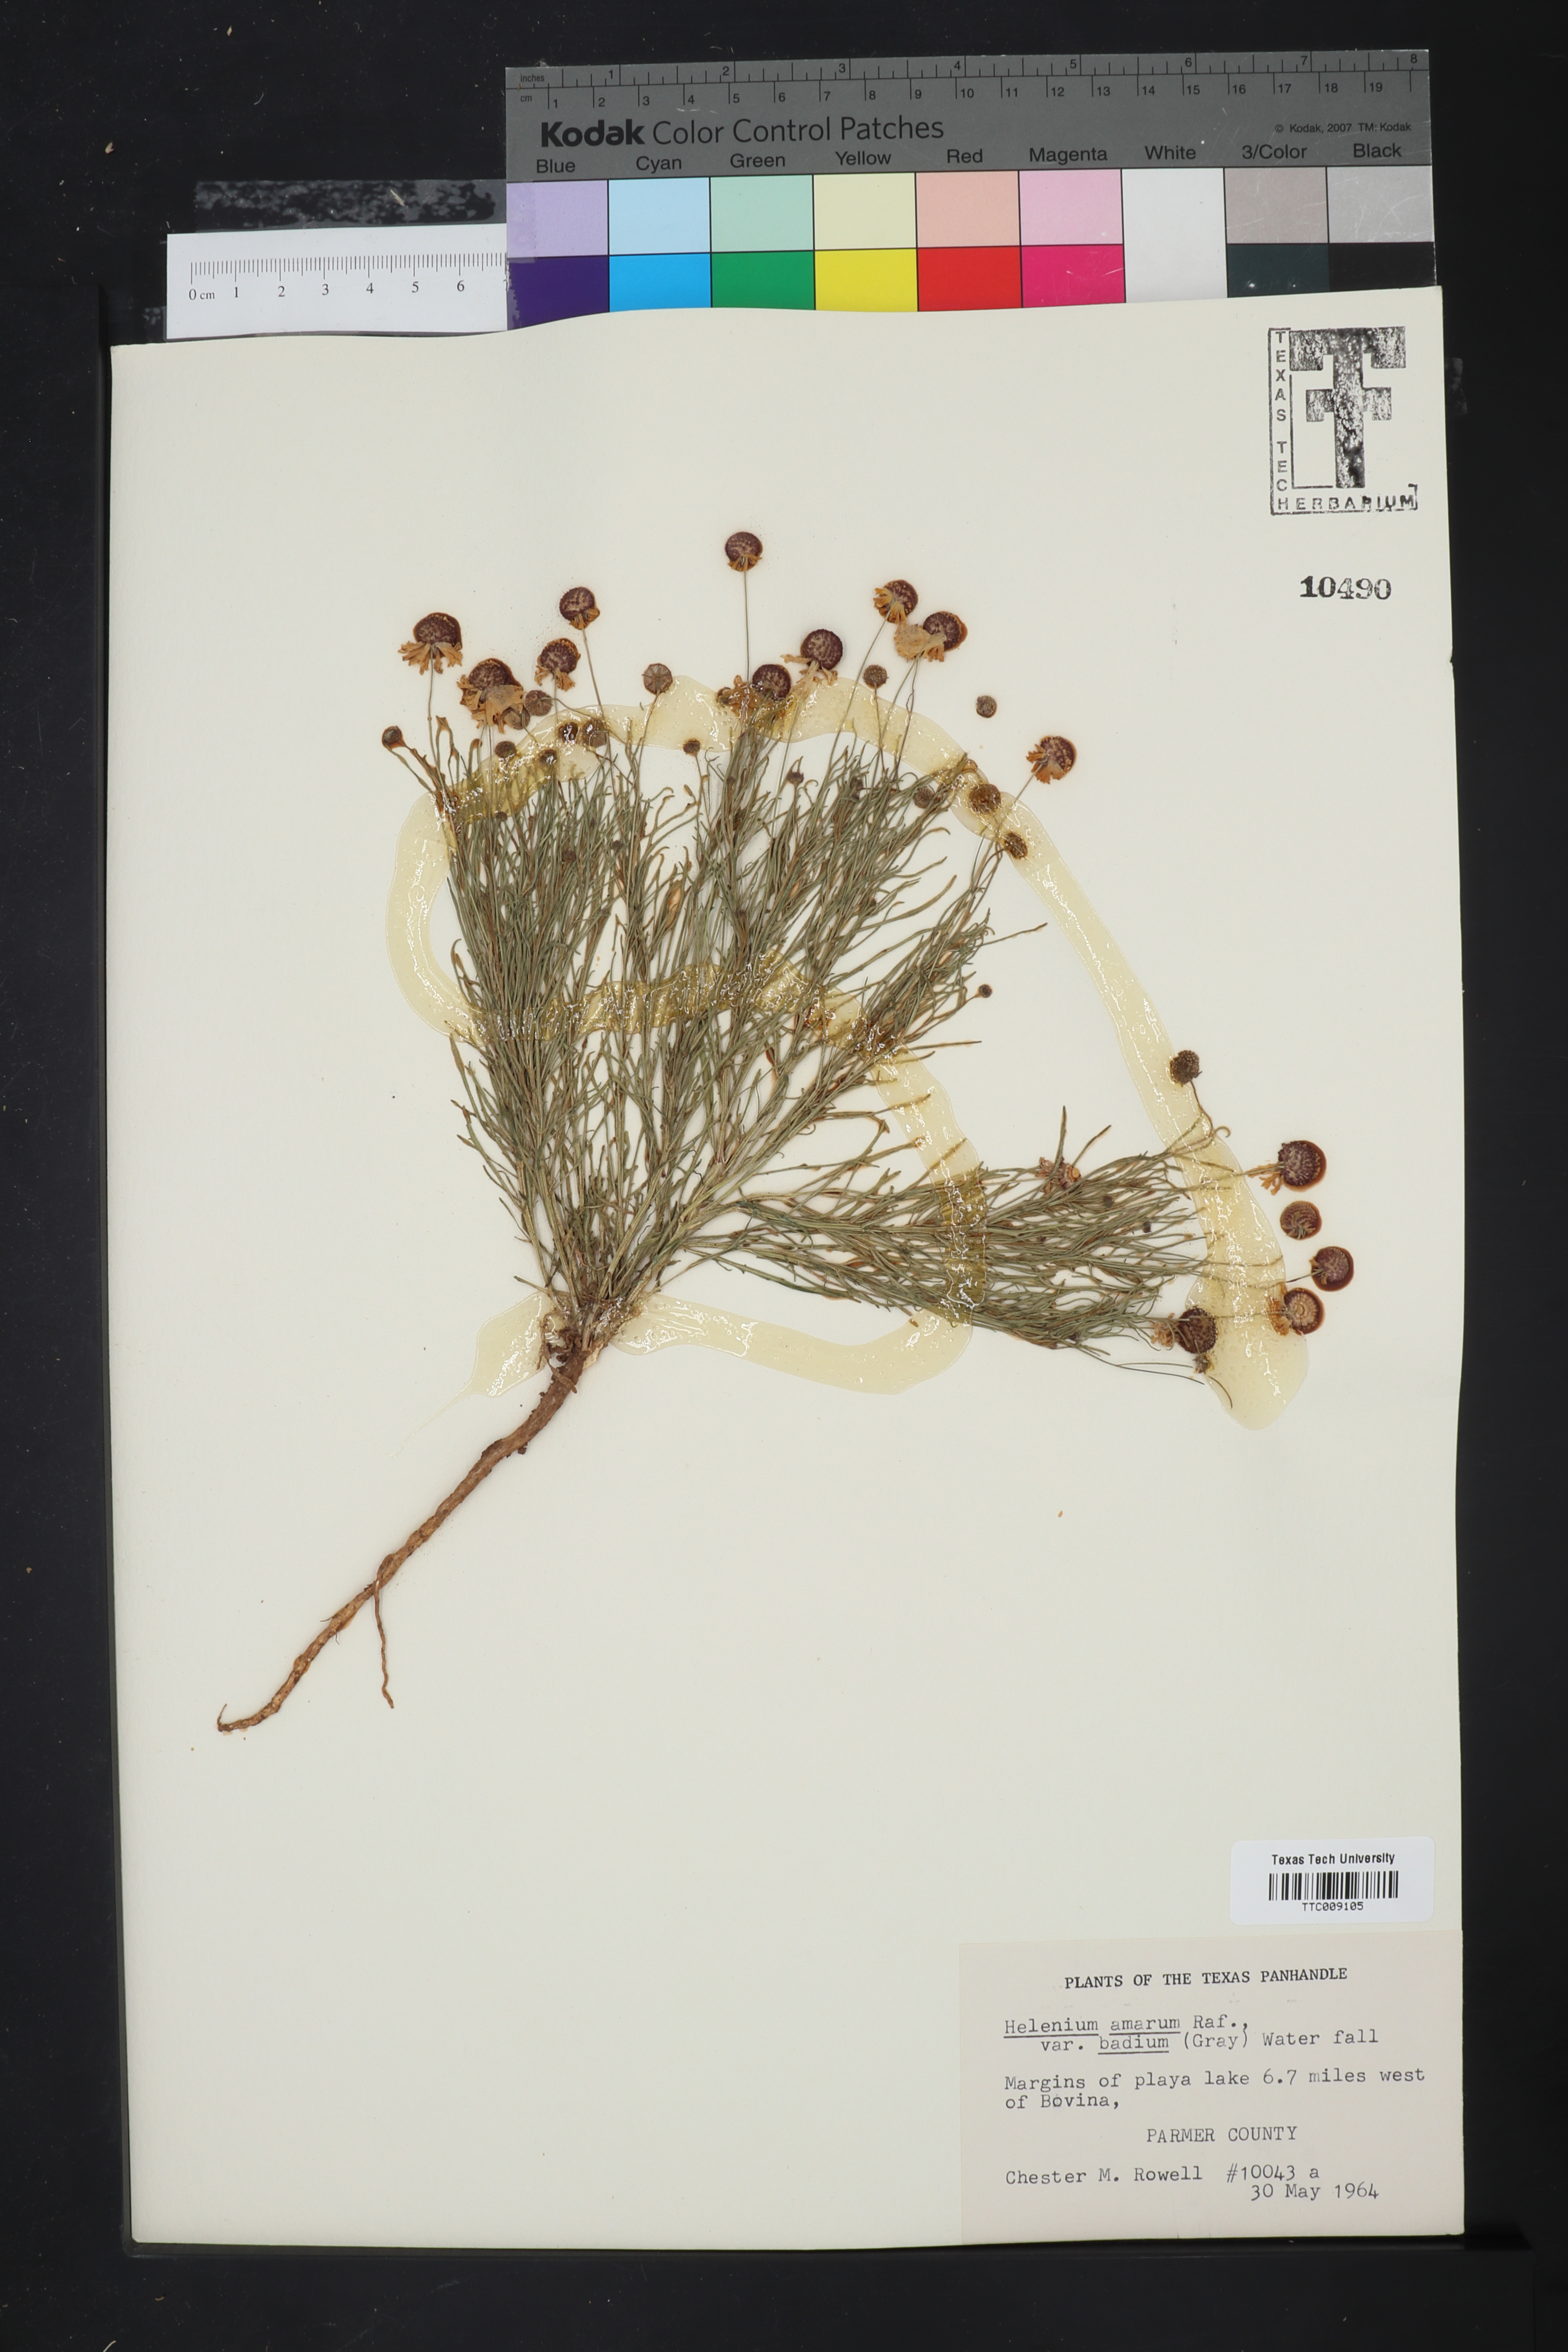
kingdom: Plantae
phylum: Tracheophyta
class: Magnoliopsida
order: Asterales
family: Asteraceae
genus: Helenium
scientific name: Helenium amarum
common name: Bitter sneezeweed
